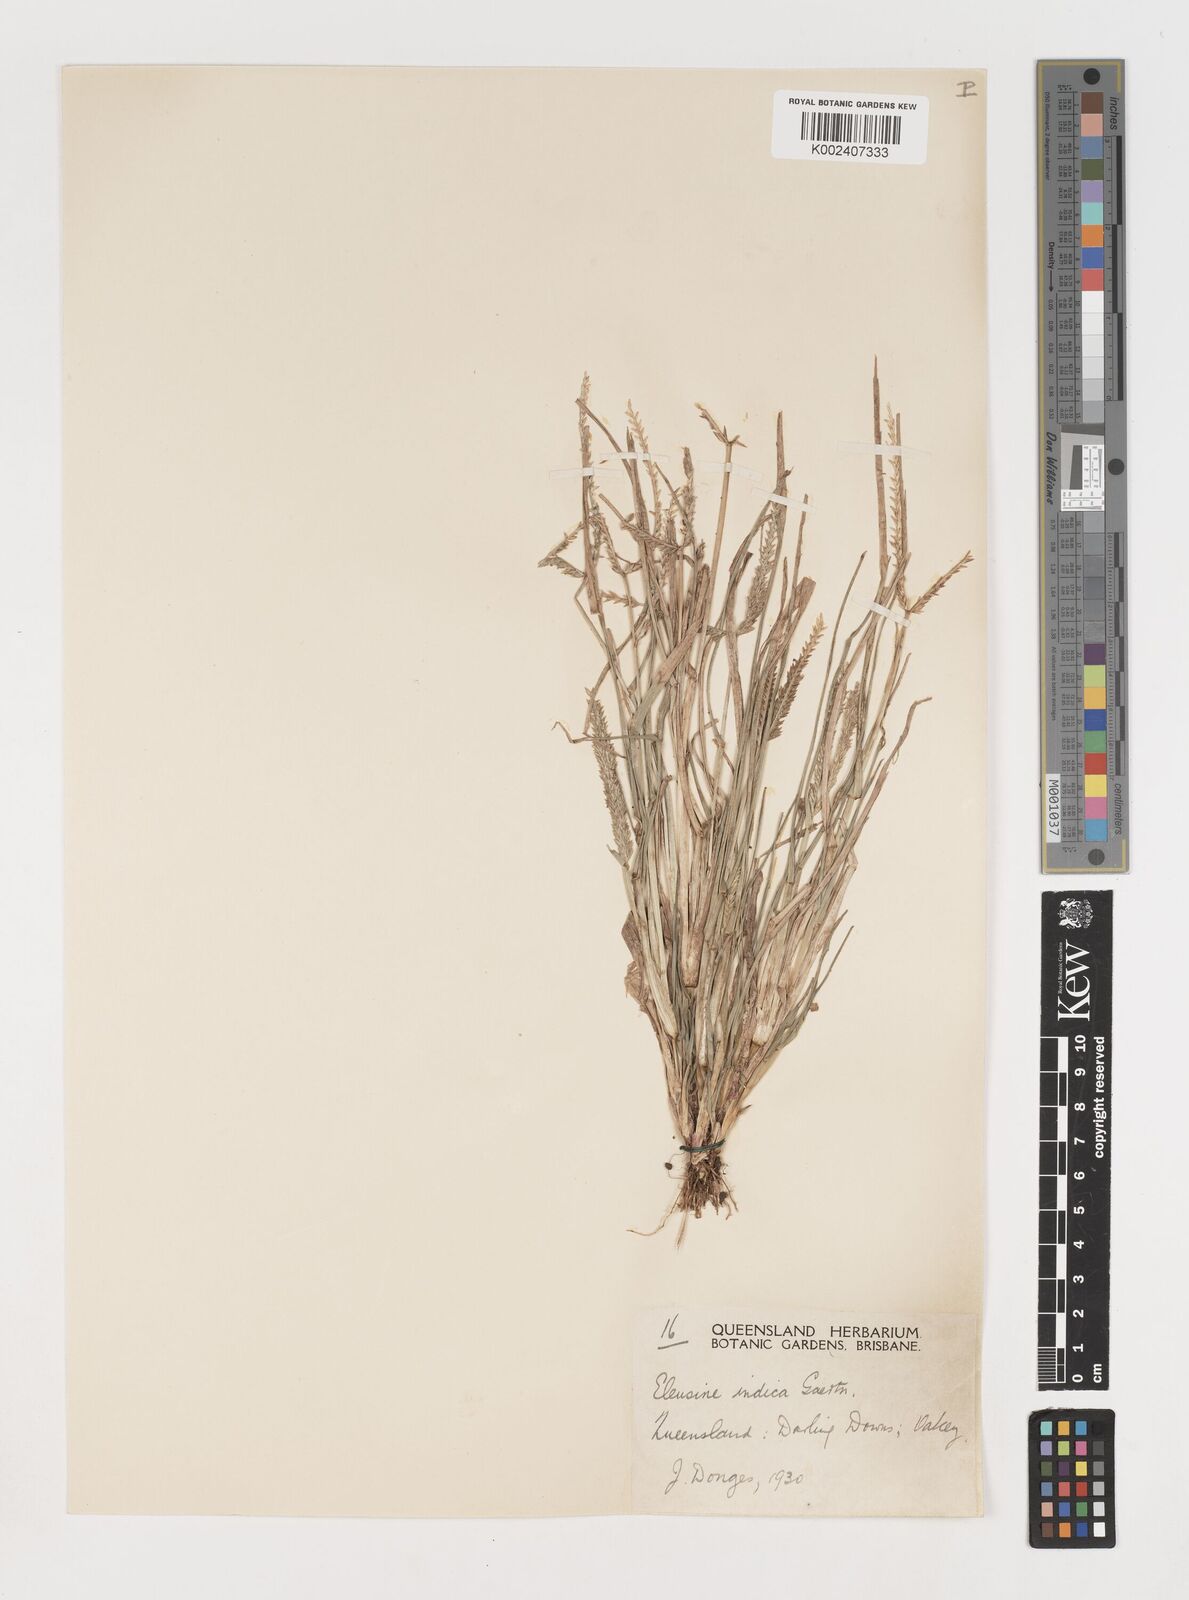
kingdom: Plantae
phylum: Tracheophyta
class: Liliopsida
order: Poales
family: Poaceae
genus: Eleusine
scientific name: Eleusine indica
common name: Yard-grass
